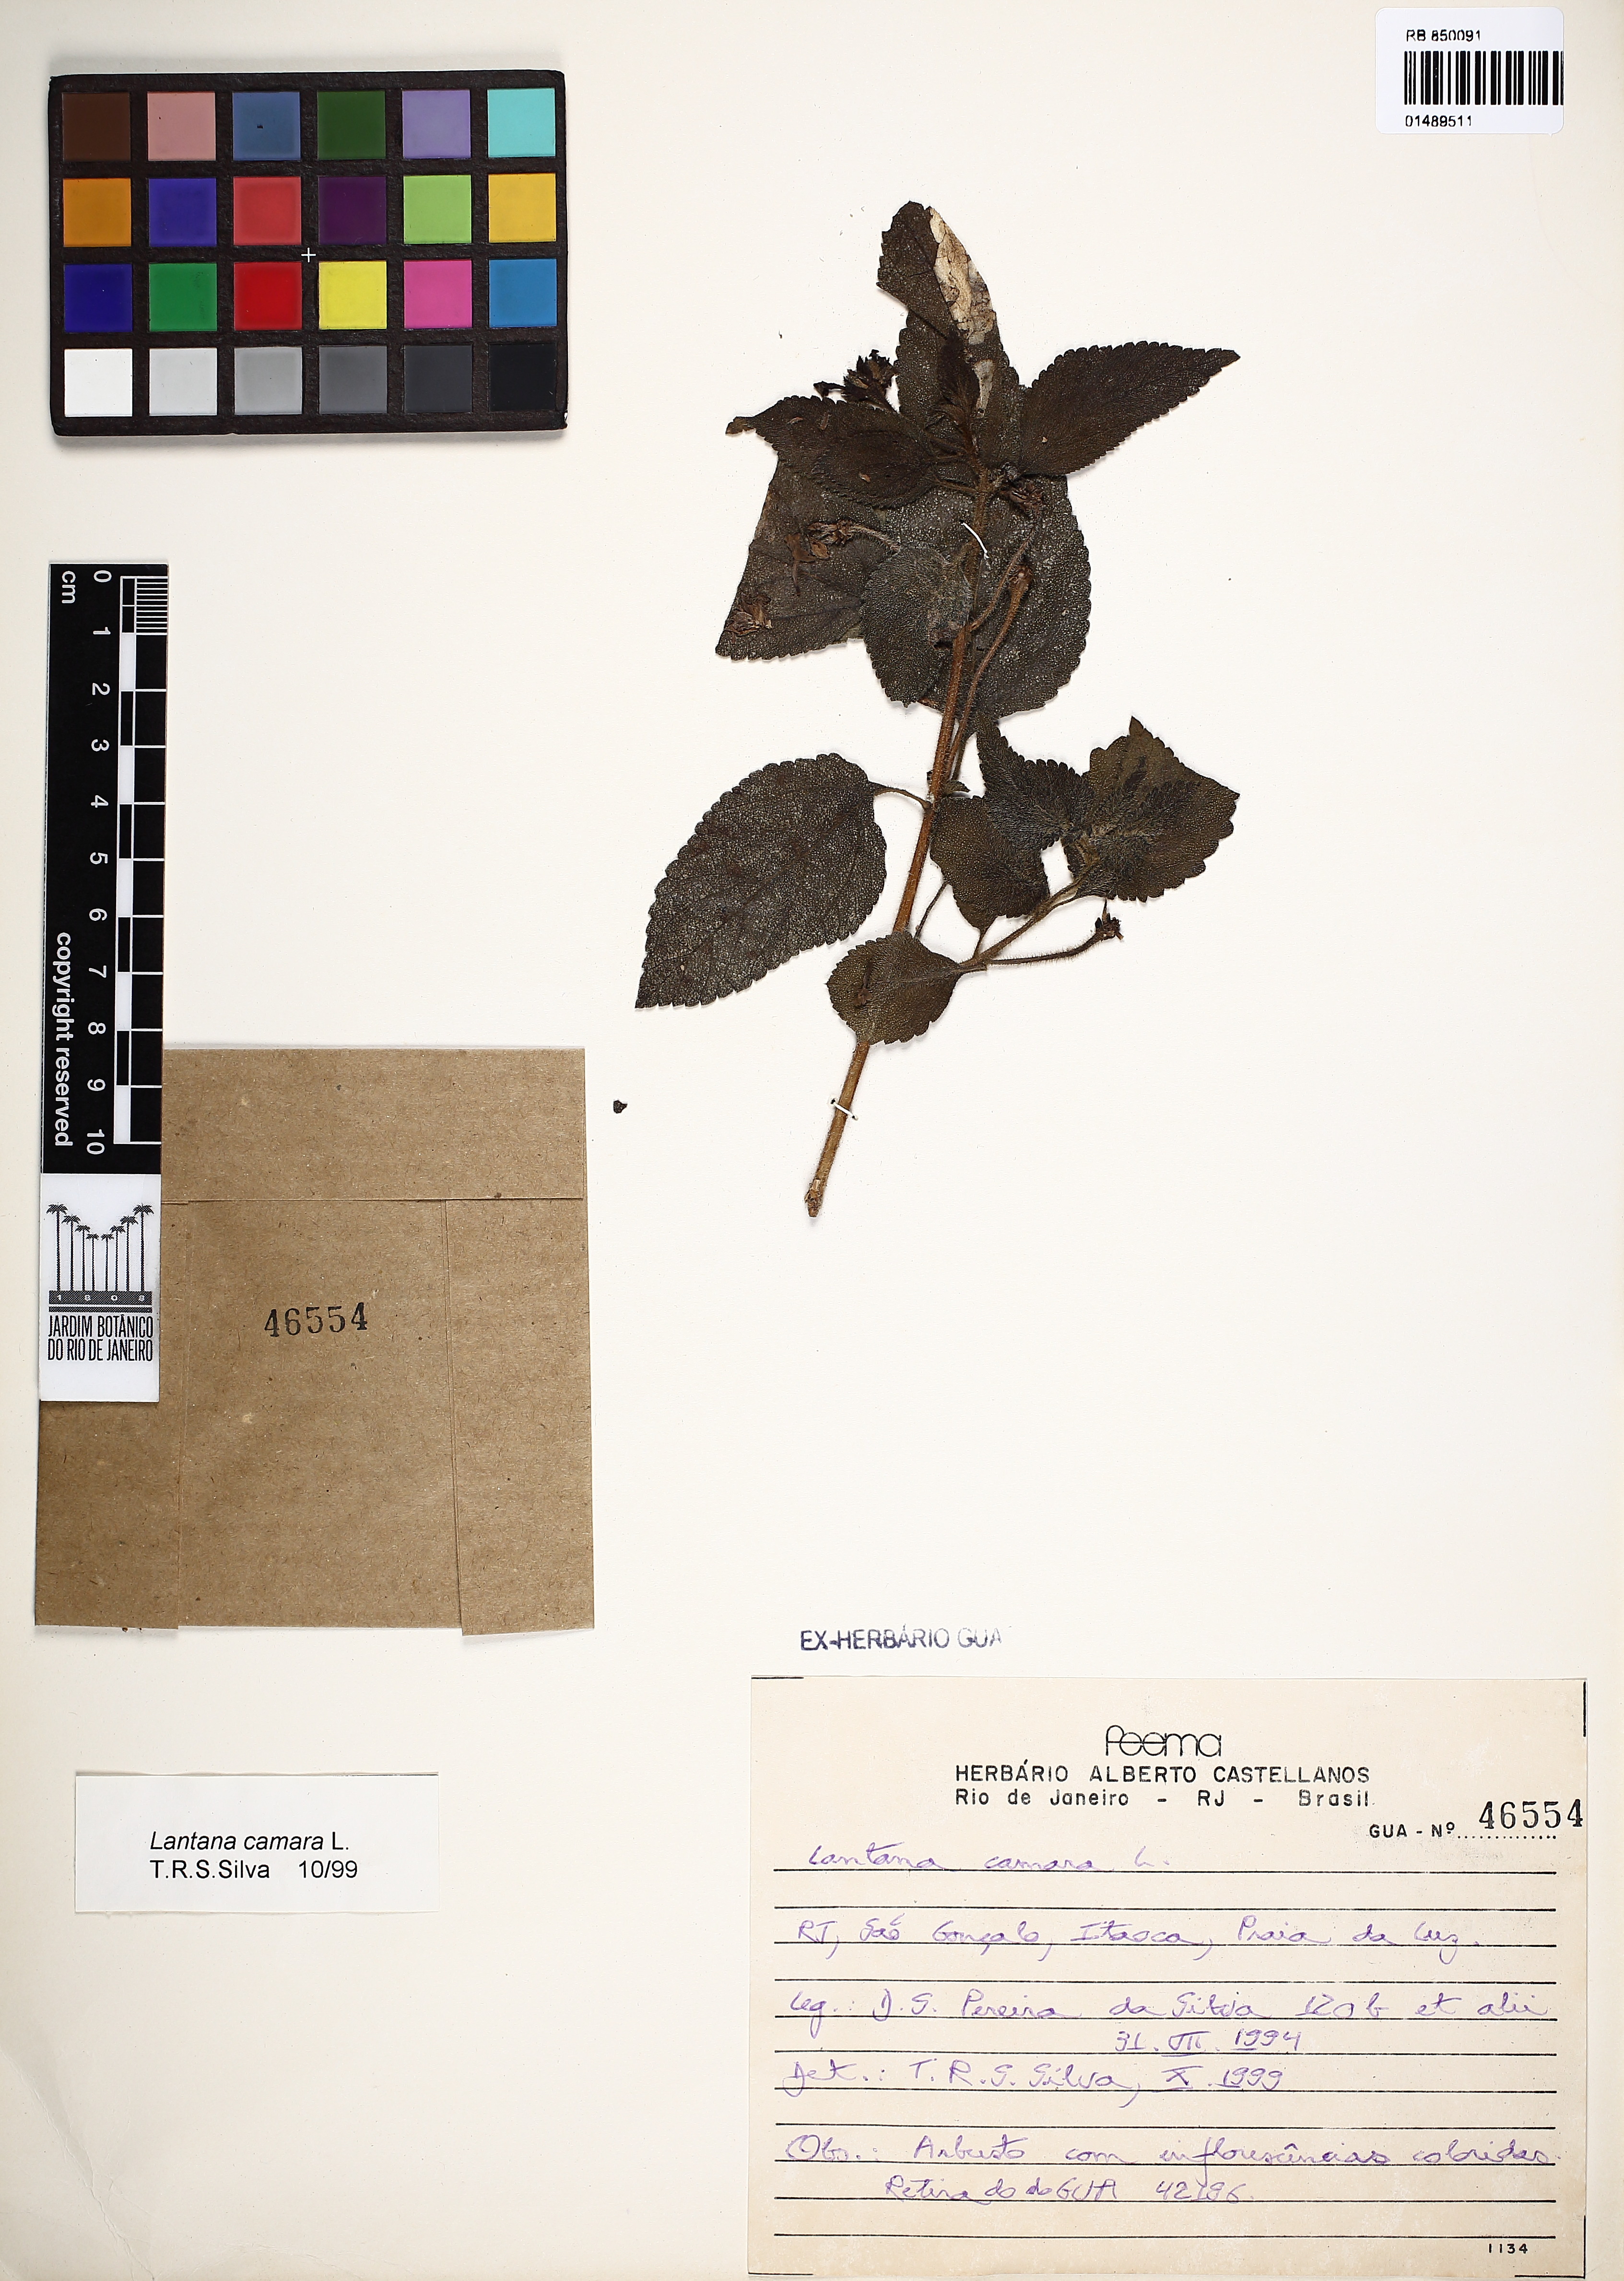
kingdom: Plantae
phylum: Tracheophyta
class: Magnoliopsida
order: Lamiales
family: Verbenaceae
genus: Lantana
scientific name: Lantana camara
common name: Lantana
